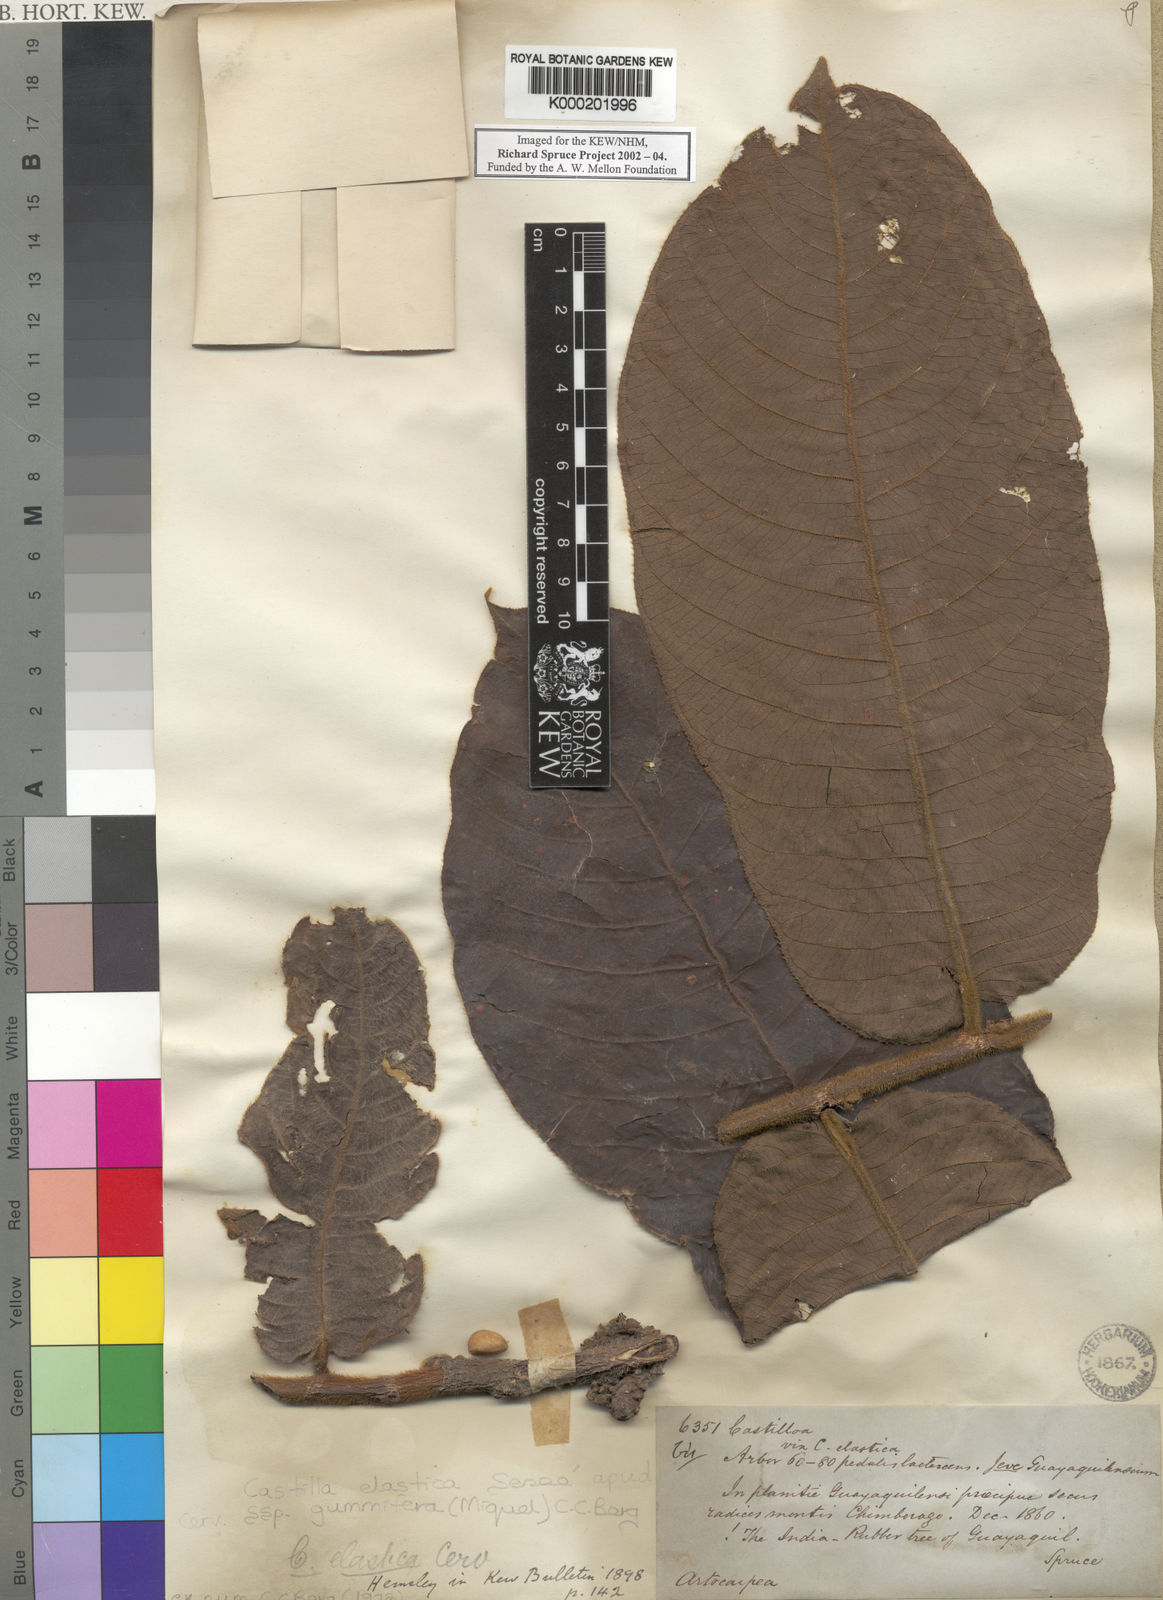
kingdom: Plantae
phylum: Tracheophyta
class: Magnoliopsida
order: Rosales
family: Moraceae
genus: Castilla
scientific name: Castilla elastica
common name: Castilla rubber
